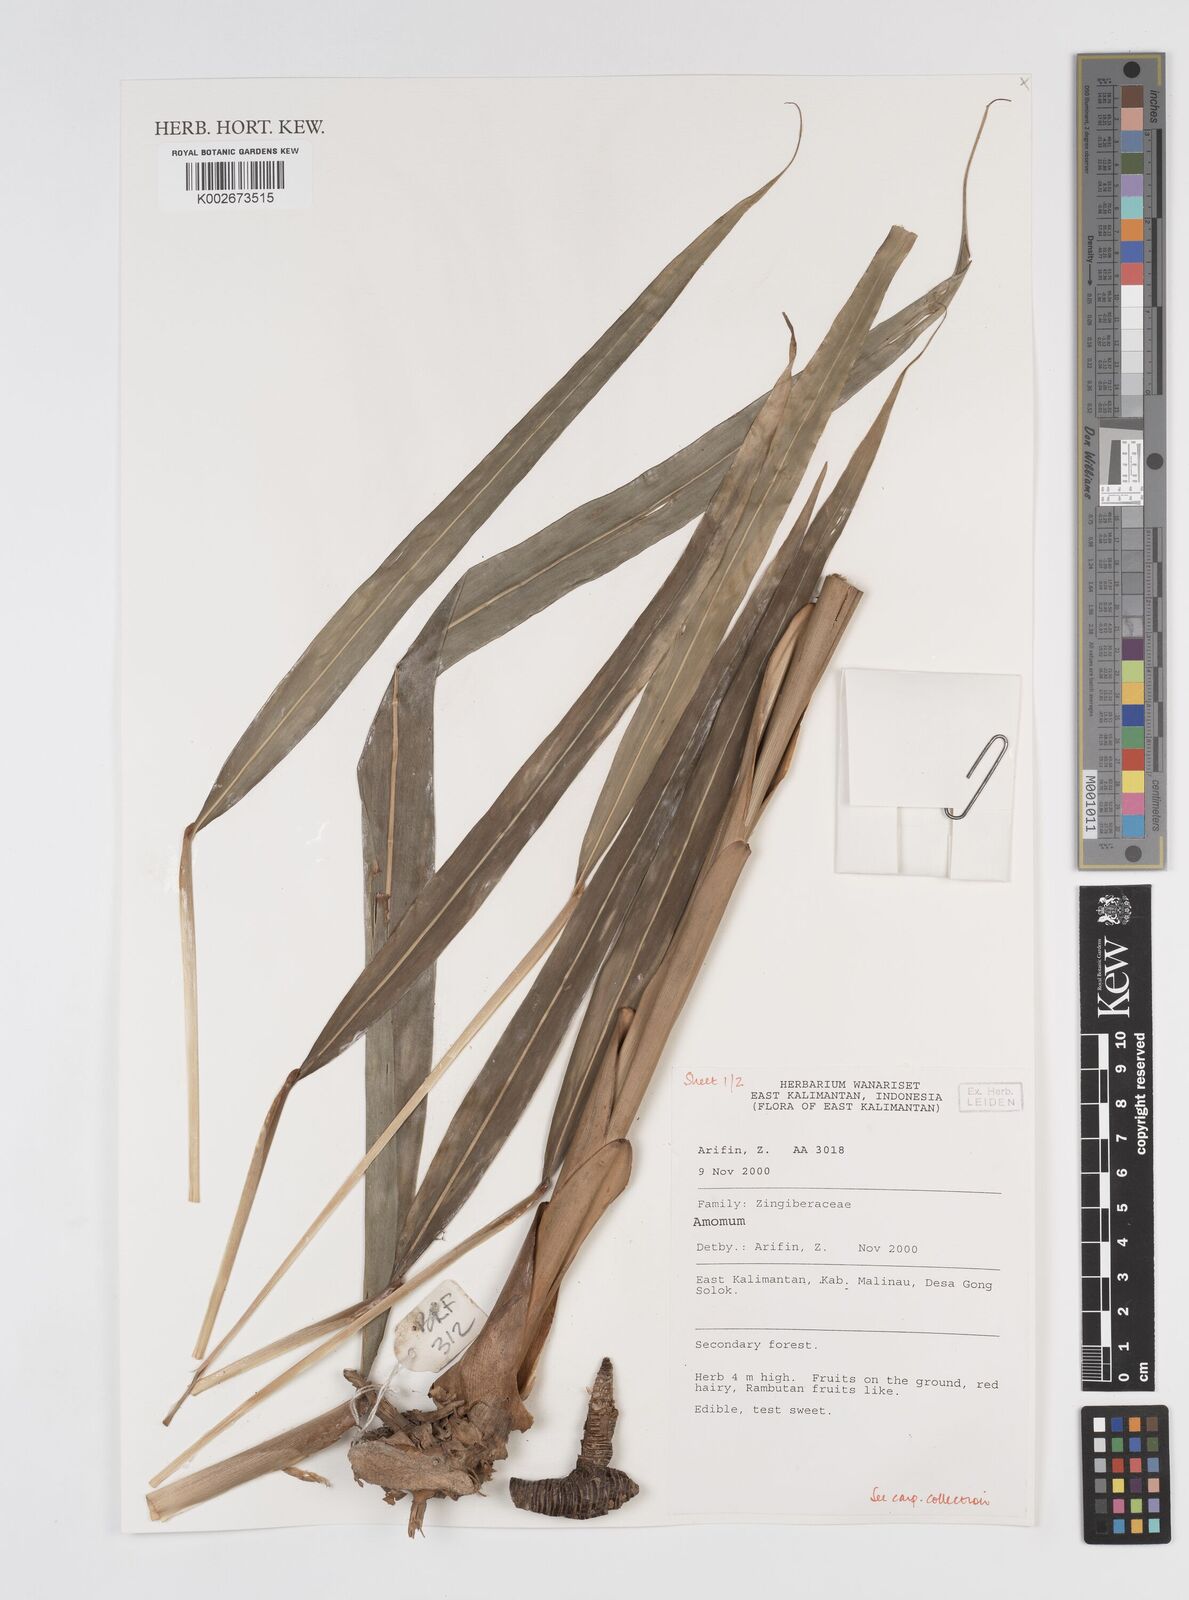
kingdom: Plantae
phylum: Tracheophyta
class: Liliopsida
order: Zingiberales
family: Zingiberaceae
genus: Amomum
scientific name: Amomum
